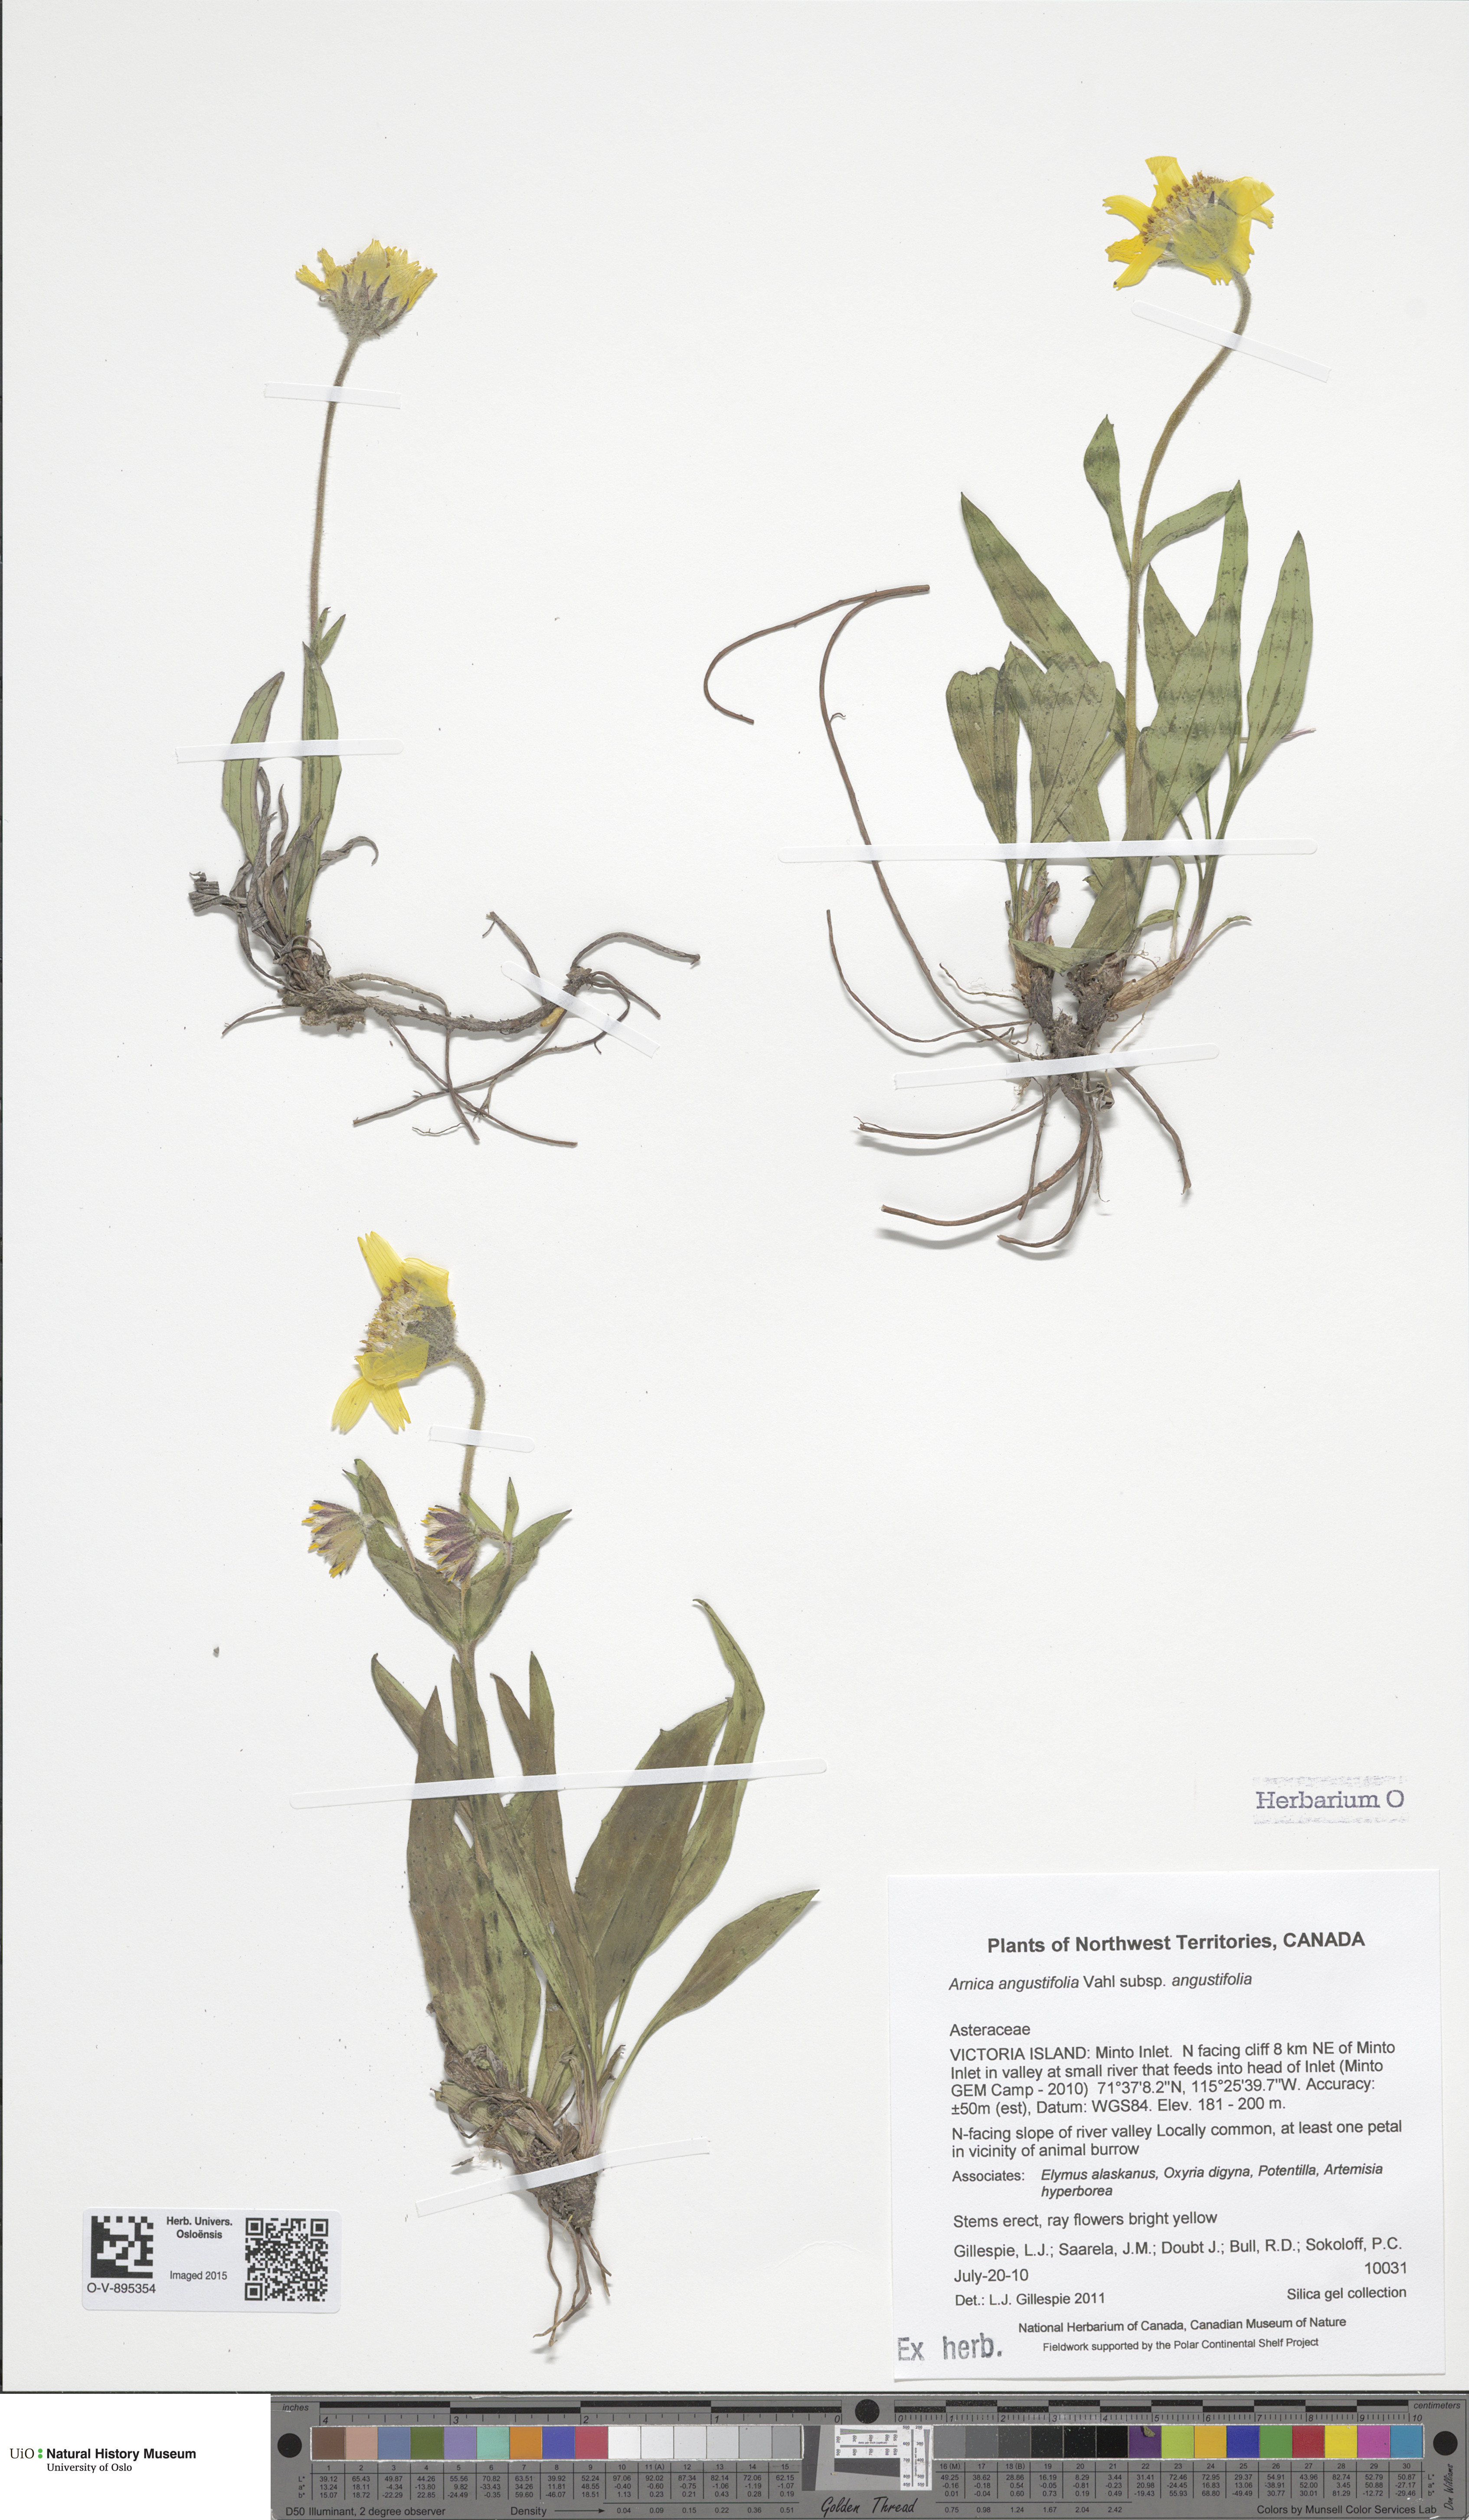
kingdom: Plantae
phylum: Tracheophyta
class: Magnoliopsida
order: Asterales
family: Asteraceae
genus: Arnica
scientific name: Arnica angustifolia
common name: Arctic arnica
